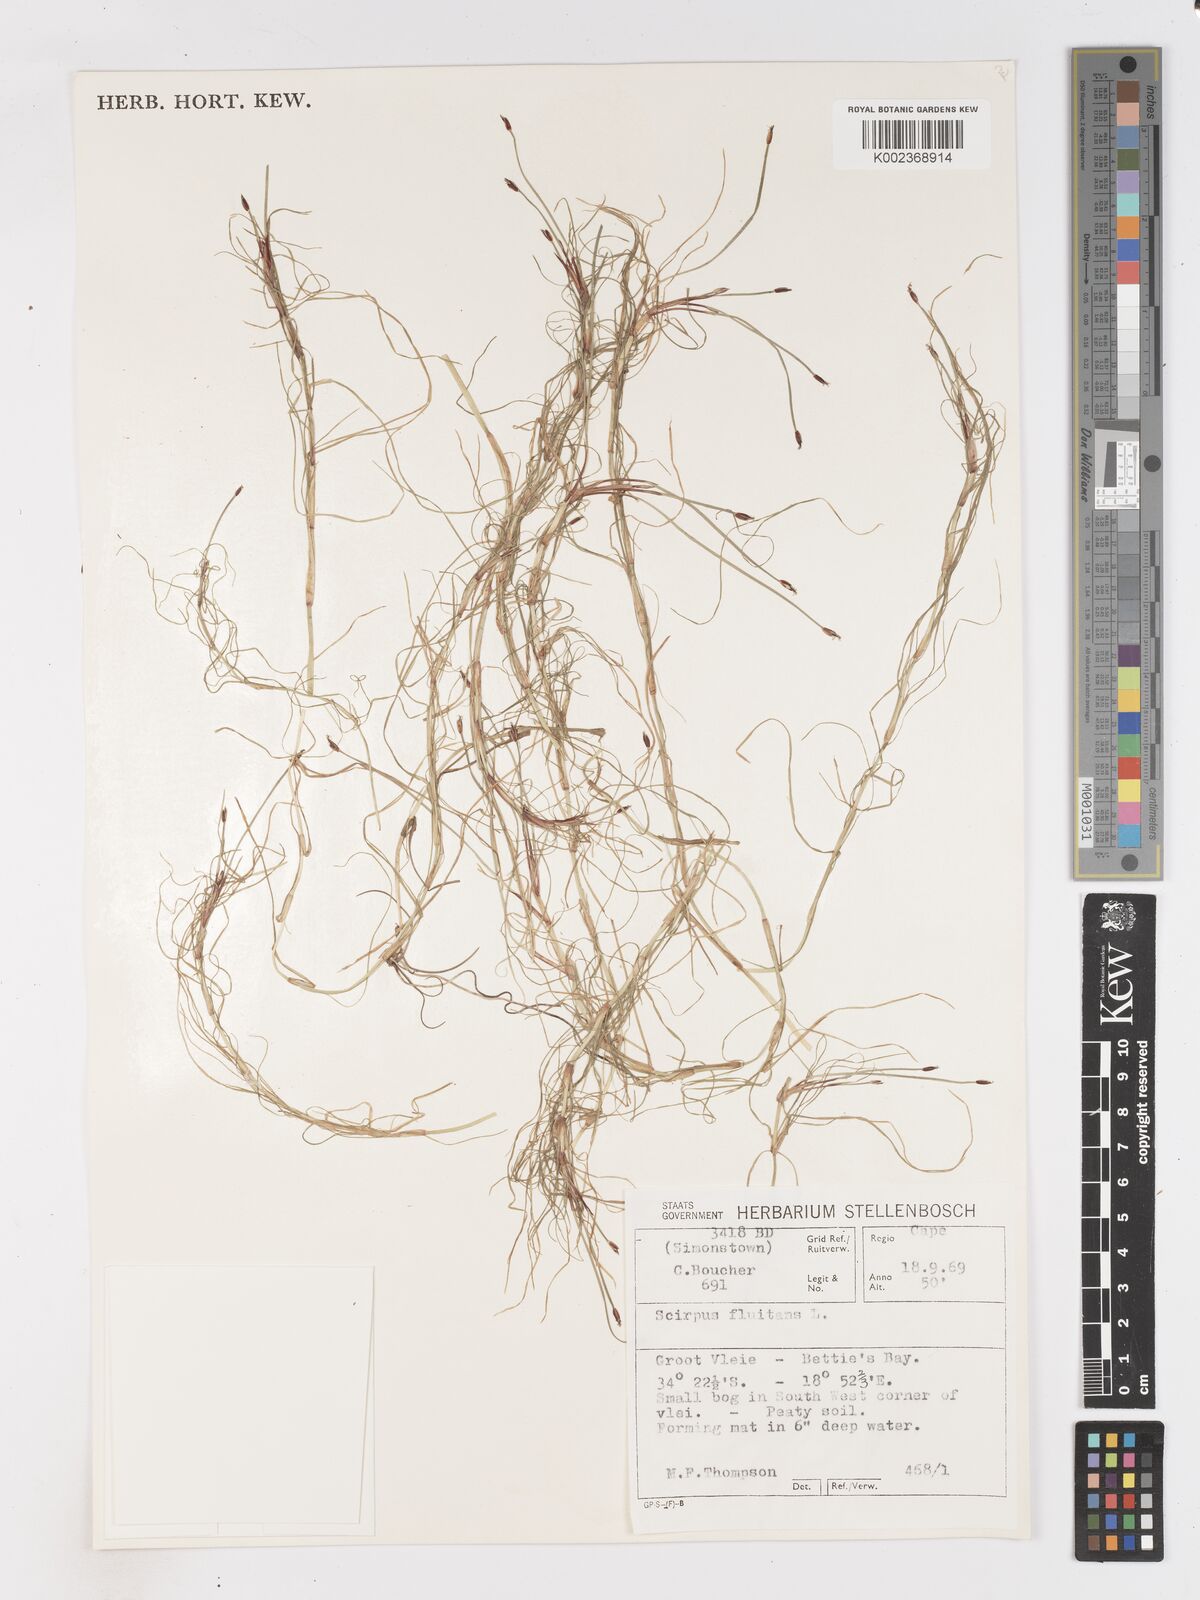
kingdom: Plantae
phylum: Tracheophyta
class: Liliopsida
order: Poales
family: Cyperaceae
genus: Isolepis
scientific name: Isolepis fluitans
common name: Floating club-rush
